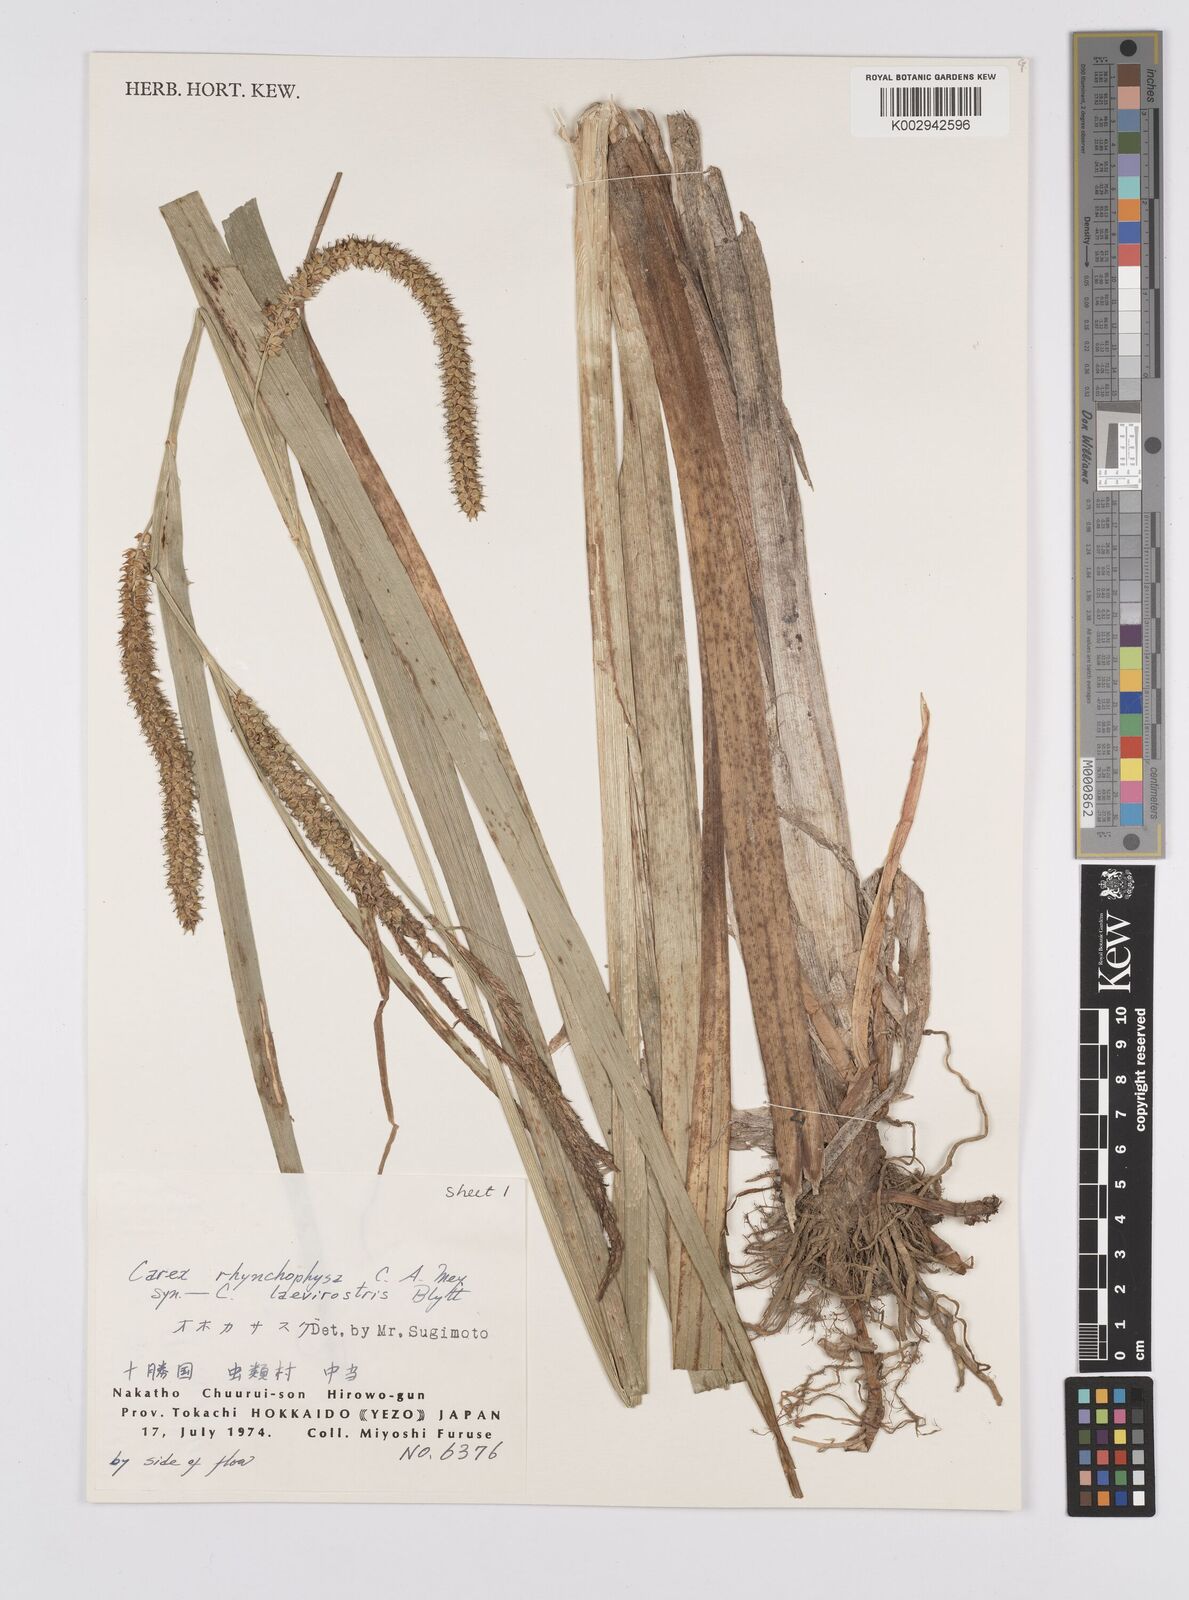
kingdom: Plantae
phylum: Tracheophyta
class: Liliopsida
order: Poales
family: Cyperaceae
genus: Carex
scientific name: Carex utriculata
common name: Beaked sedge
